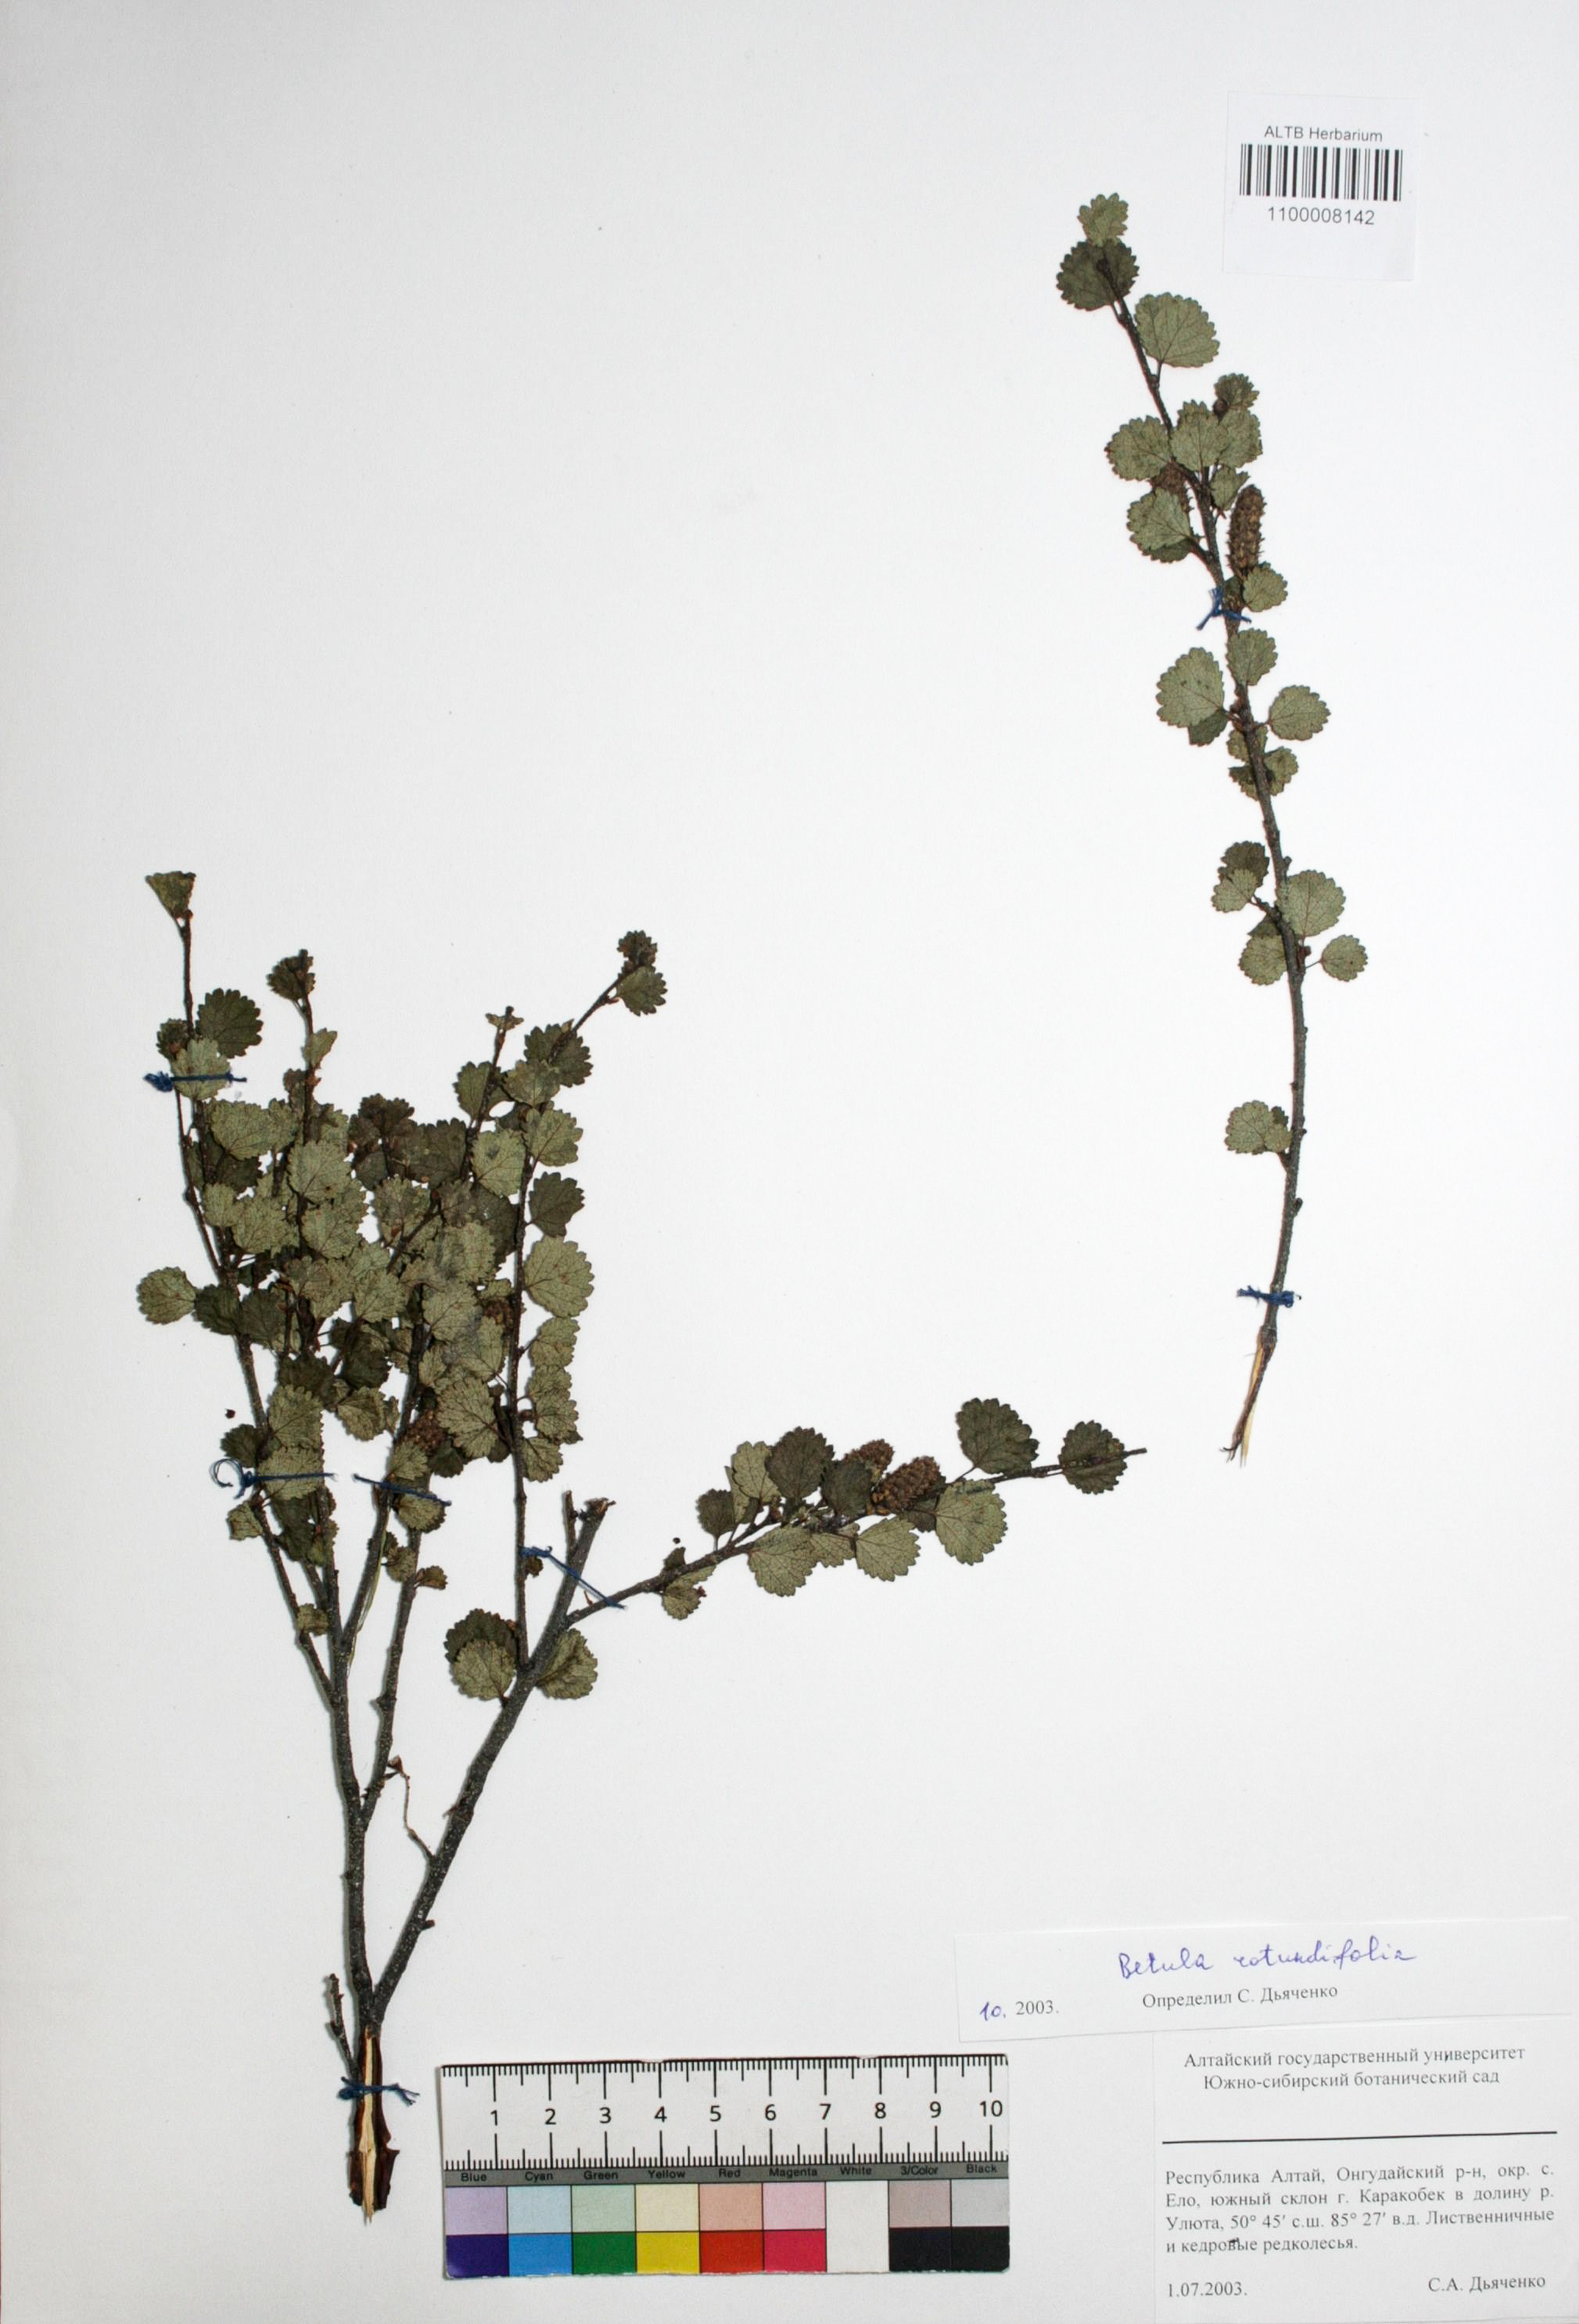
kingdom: Plantae
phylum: Tracheophyta
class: Magnoliopsida
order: Fagales
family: Betulaceae
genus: Betula
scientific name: Betula glandulosa
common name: Dwarf birch
